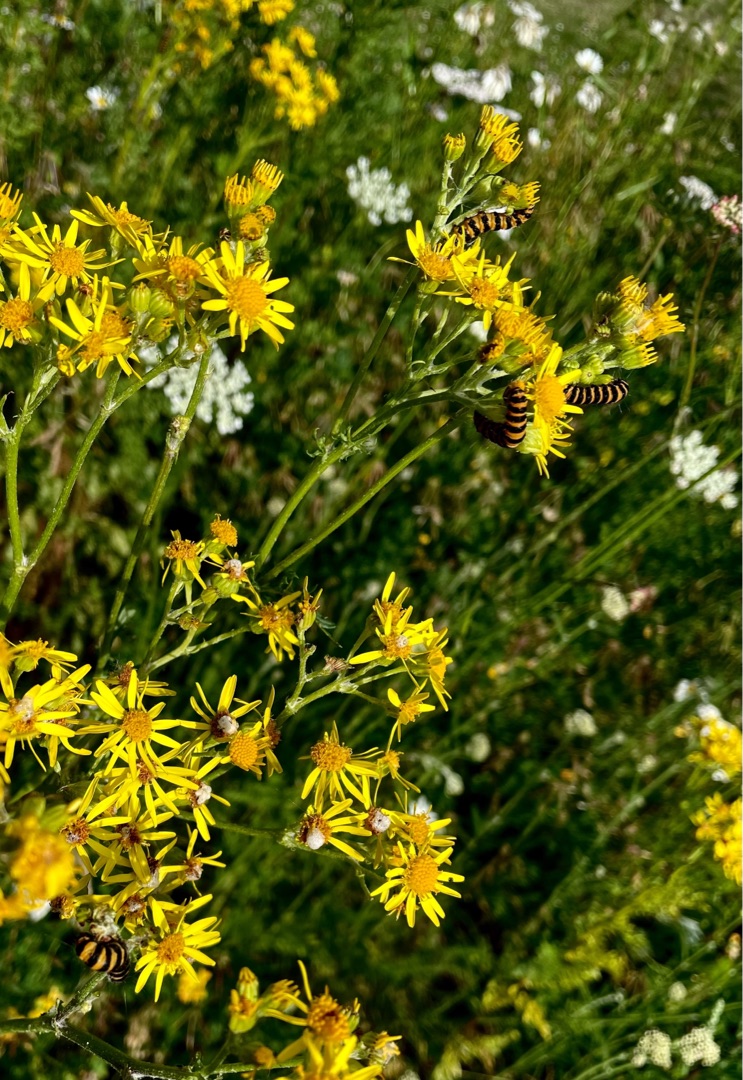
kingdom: Animalia
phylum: Arthropoda
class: Insecta
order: Lepidoptera
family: Erebidae
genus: Tyria
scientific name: Tyria jacobaeae
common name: Blodplet
